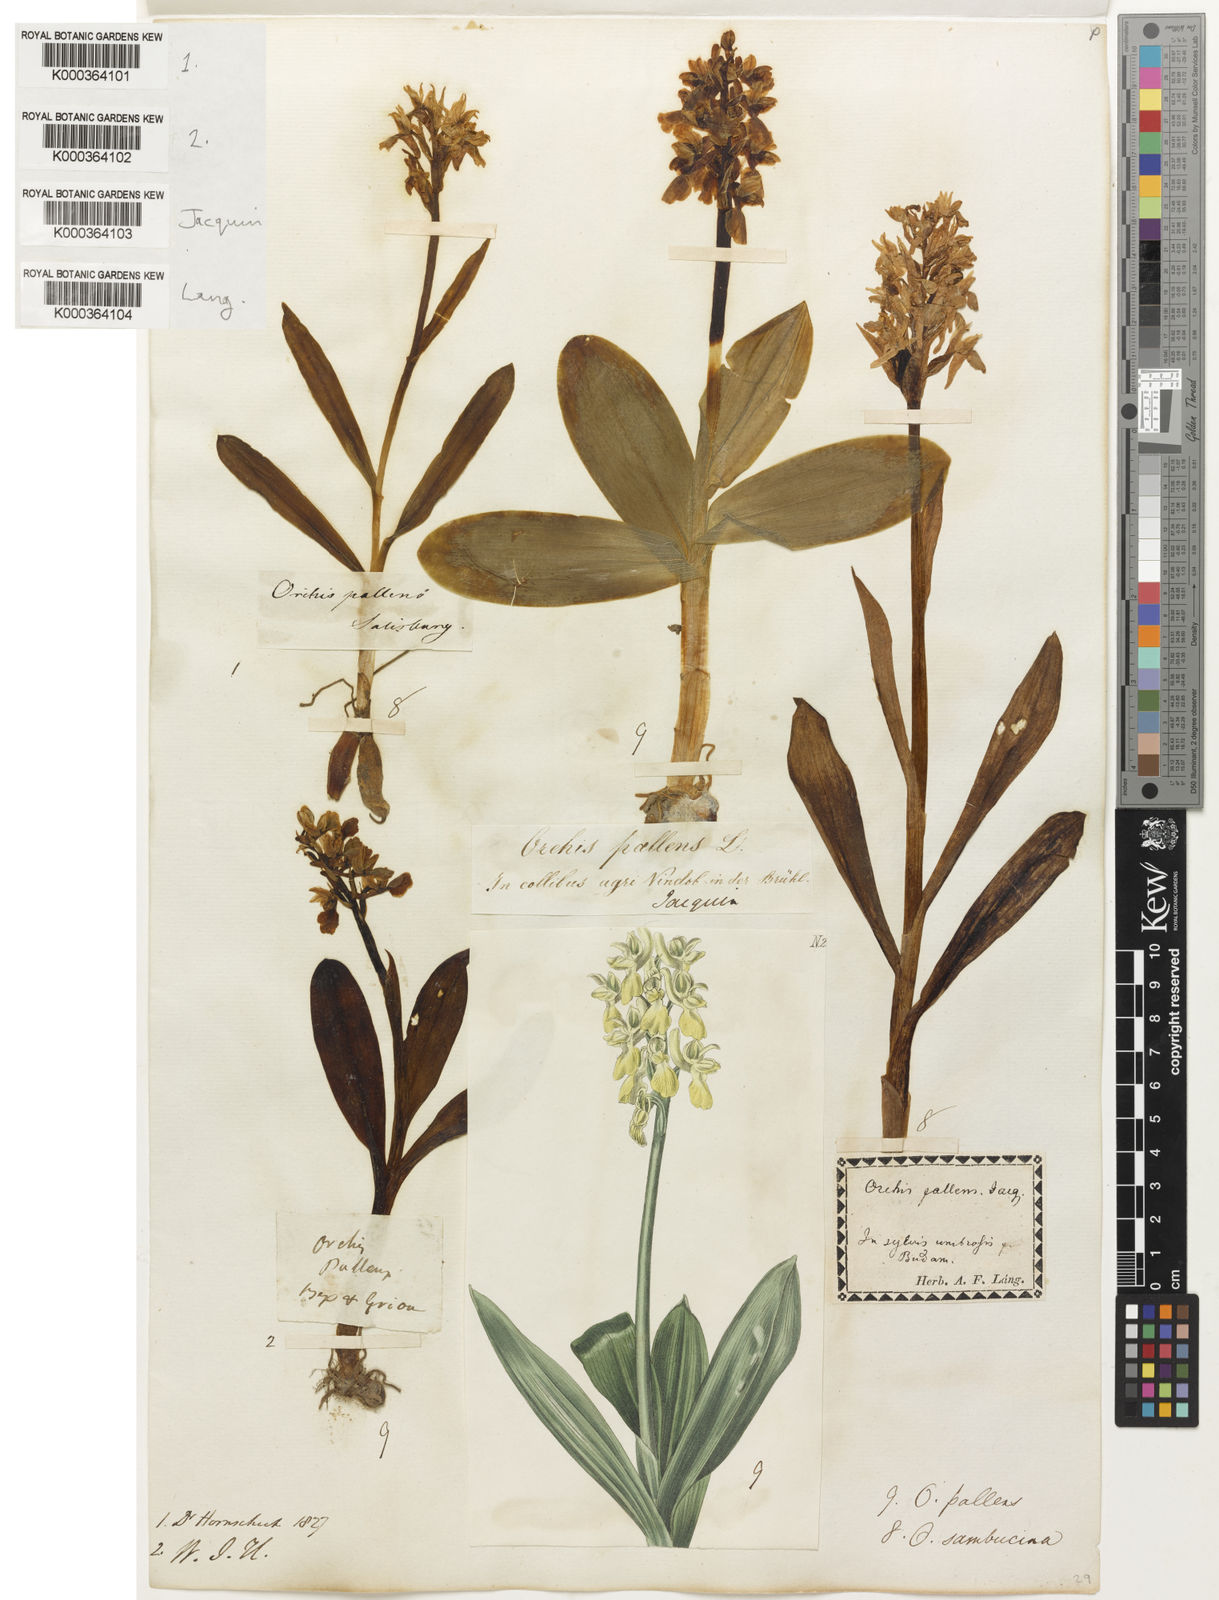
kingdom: Plantae
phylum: Tracheophyta
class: Liliopsida
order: Asparagales
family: Orchidaceae
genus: Orchis
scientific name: Orchis pallens
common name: Pale-flowered orchid
